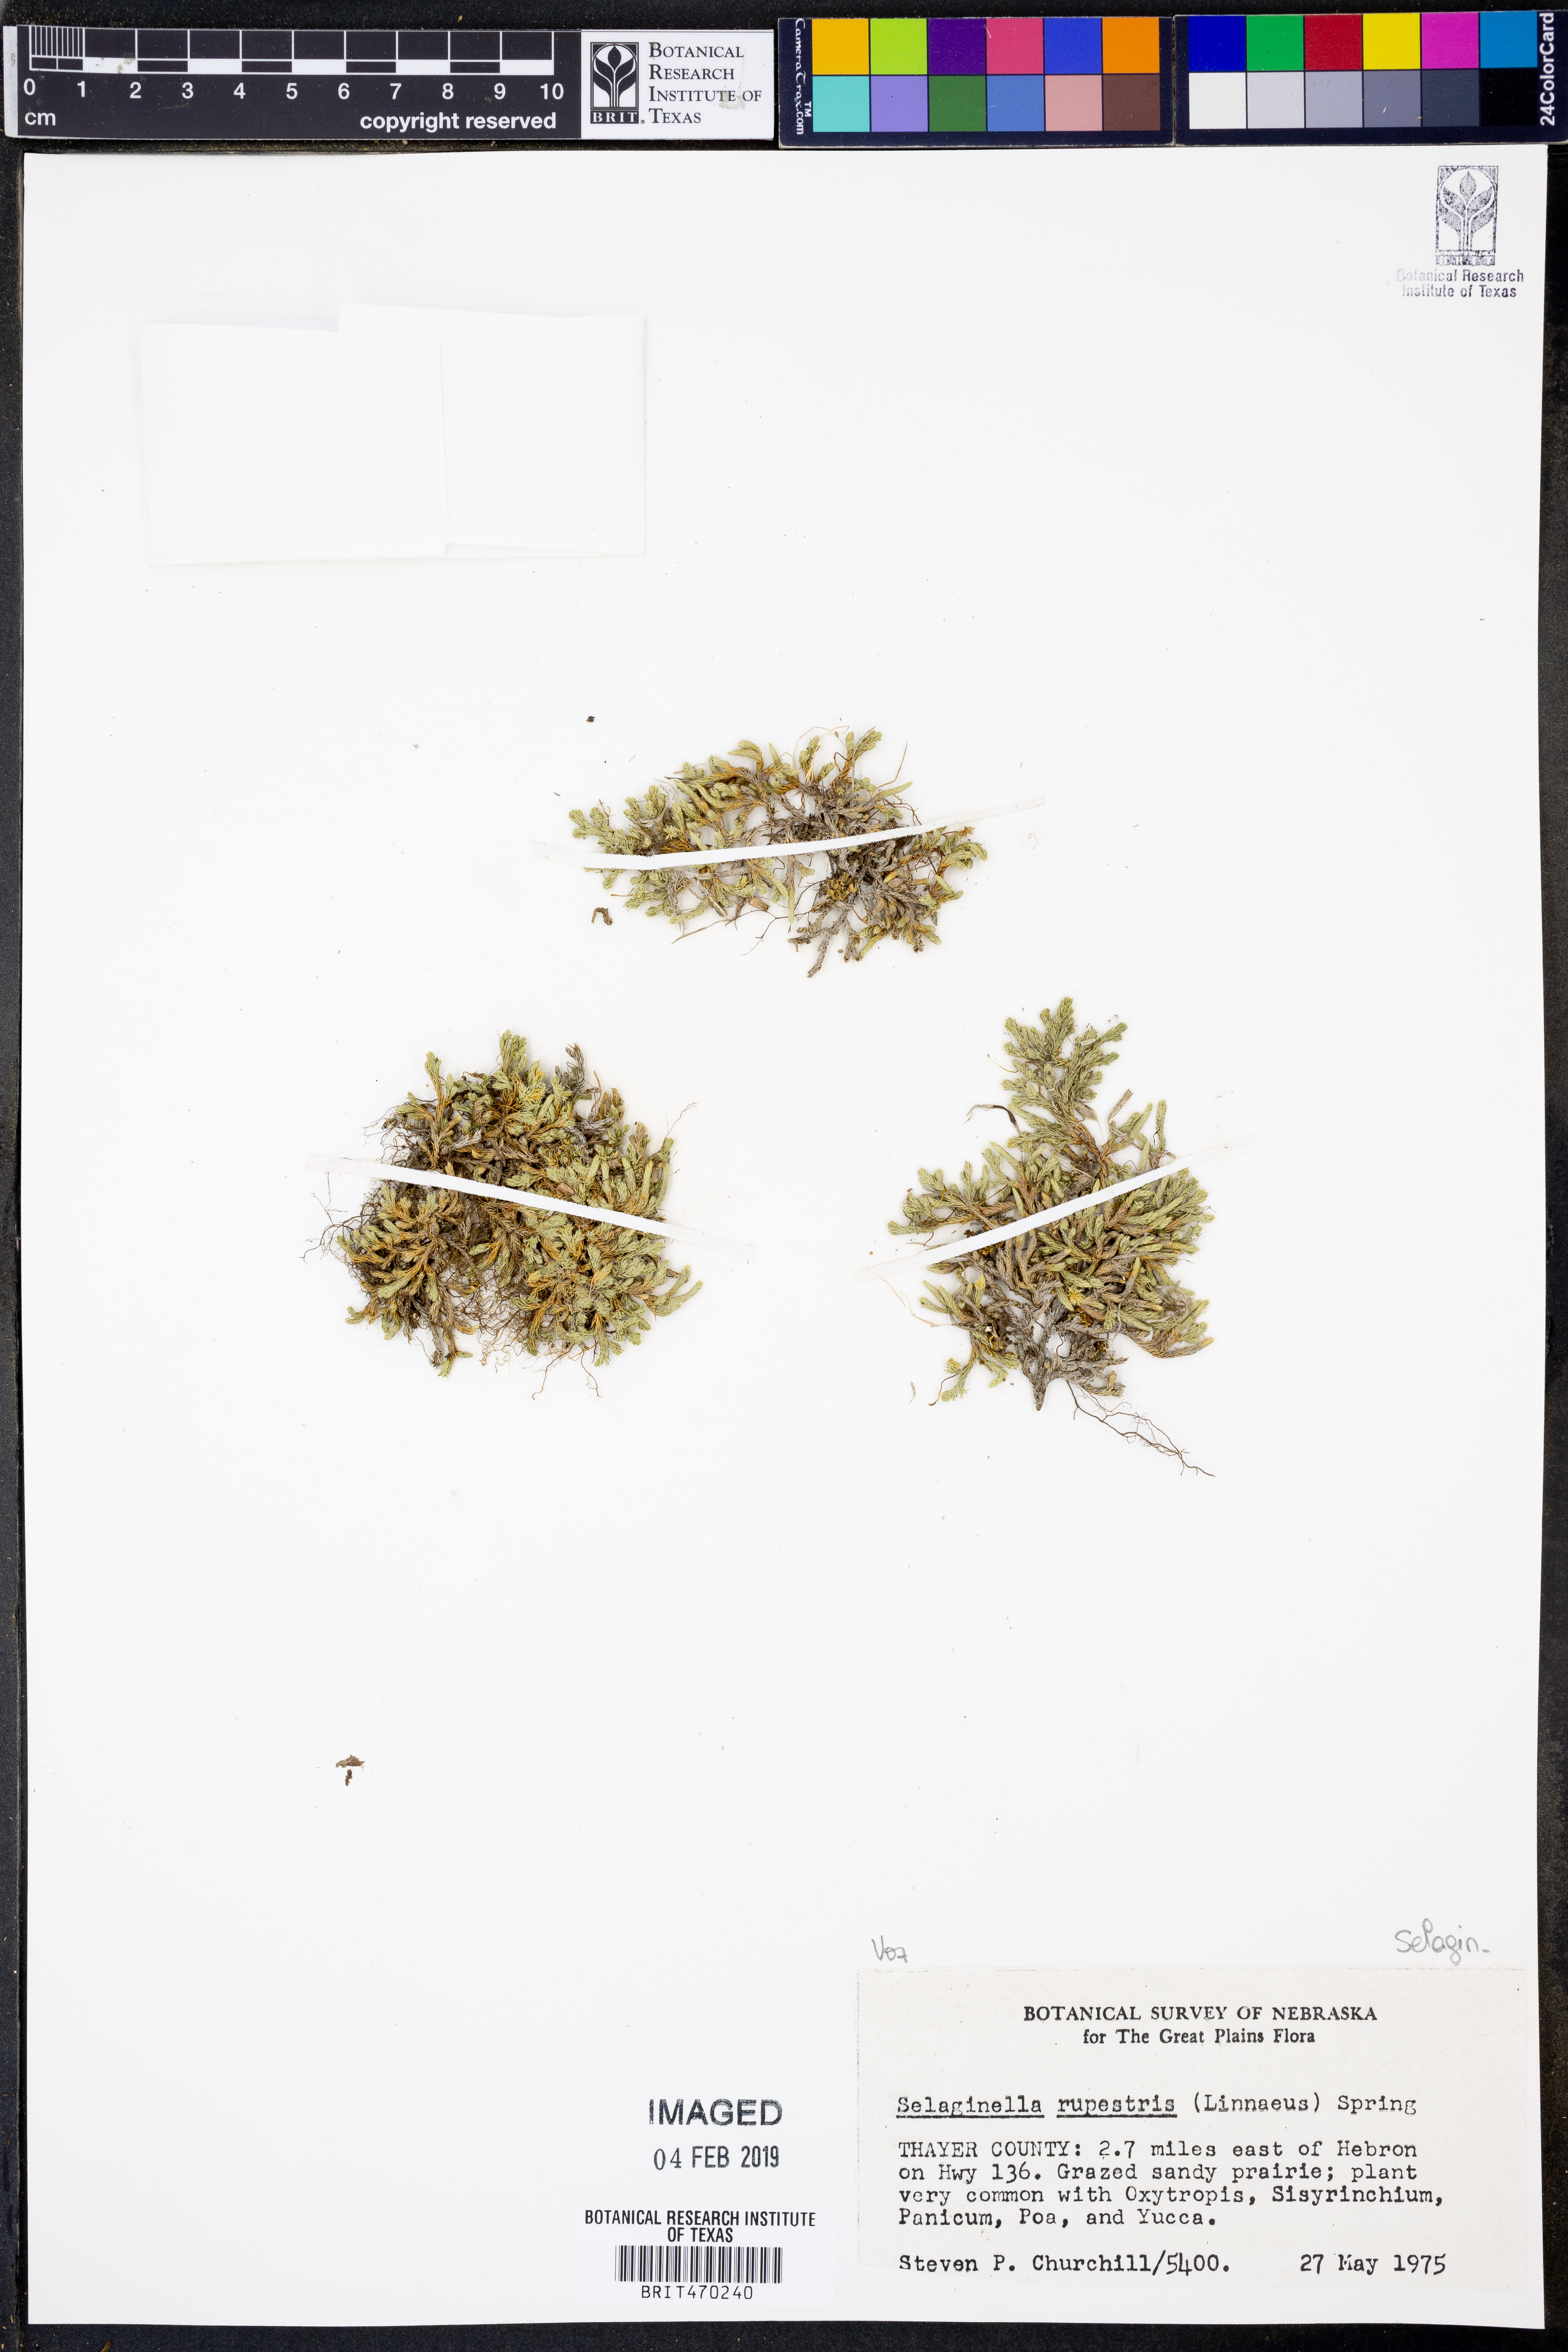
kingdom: Plantae
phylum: Tracheophyta
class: Lycopodiopsida
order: Selaginellales
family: Selaginellaceae
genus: Selaginella
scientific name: Selaginella rupestris
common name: Dwarf spikemoss
